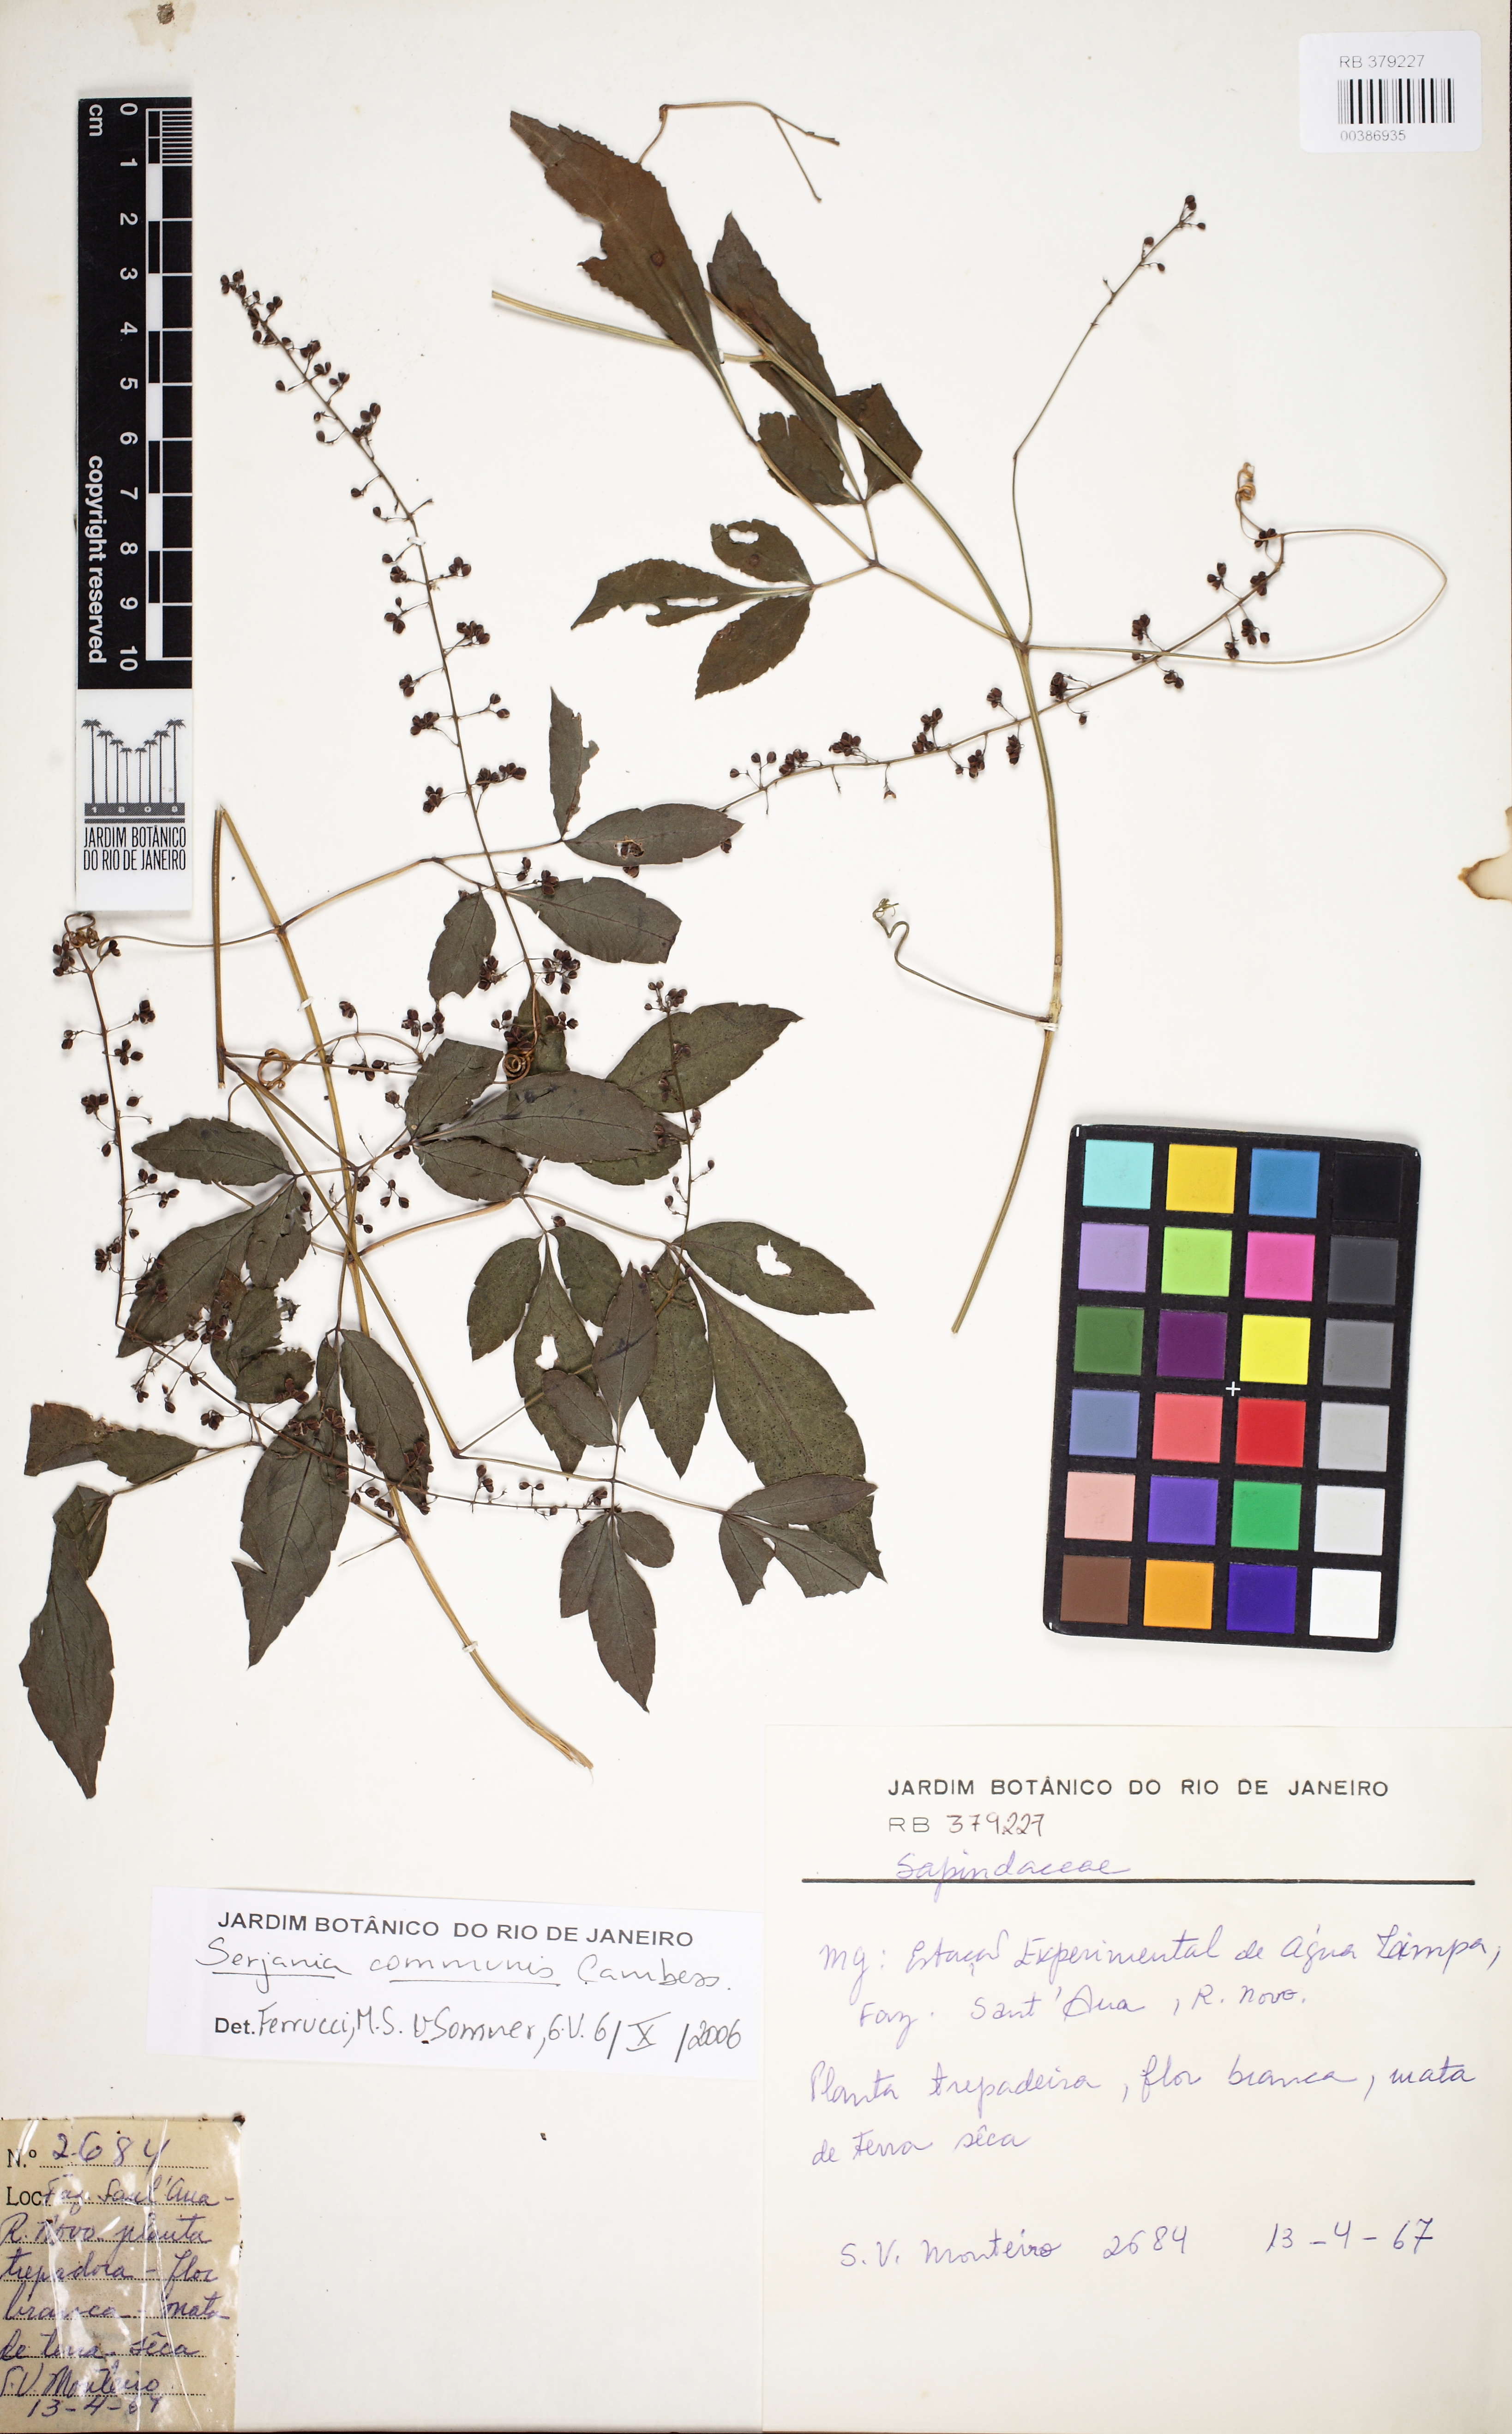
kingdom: Plantae
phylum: Tracheophyta
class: Magnoliopsida
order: Sapindales
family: Sapindaceae
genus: Serjania
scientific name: Serjania communis
